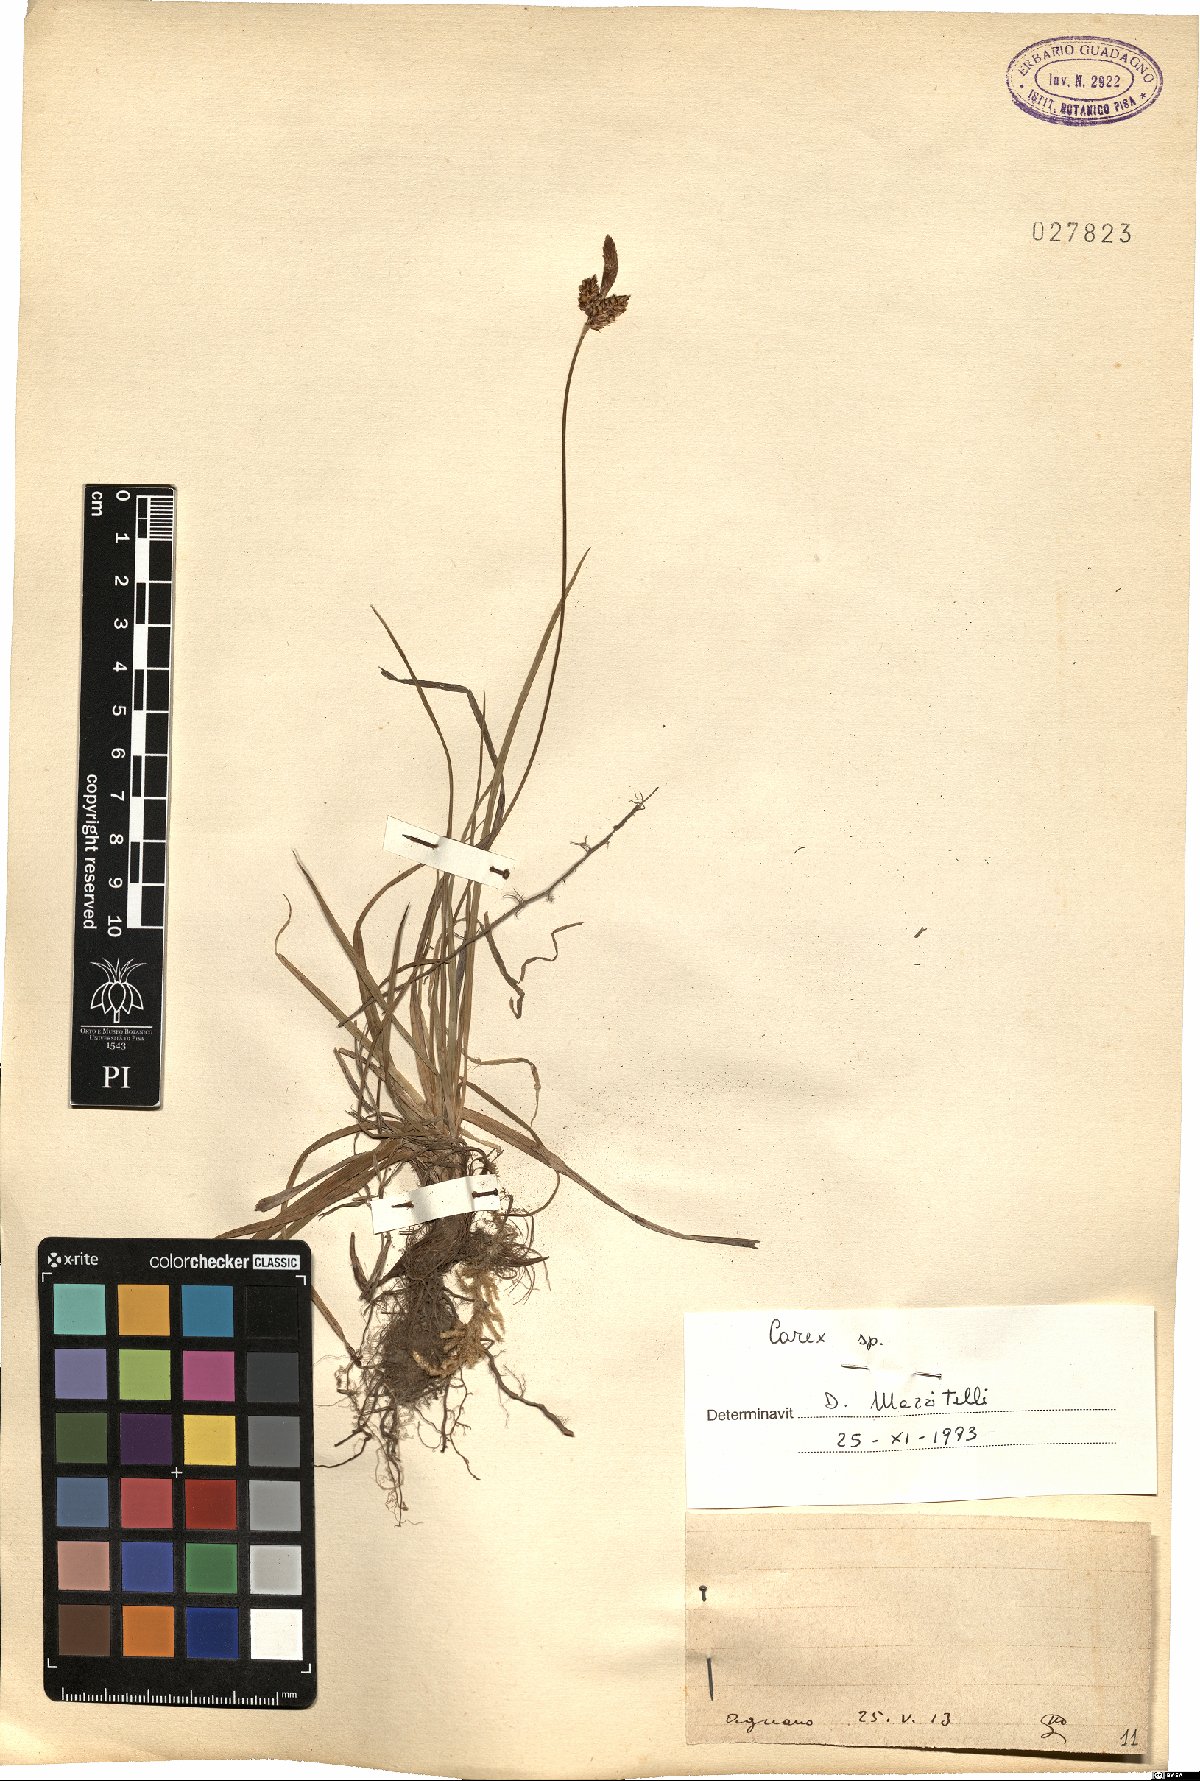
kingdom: Plantae
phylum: Tracheophyta
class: Liliopsida
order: Poales
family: Cyperaceae
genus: Carex
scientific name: Carex
